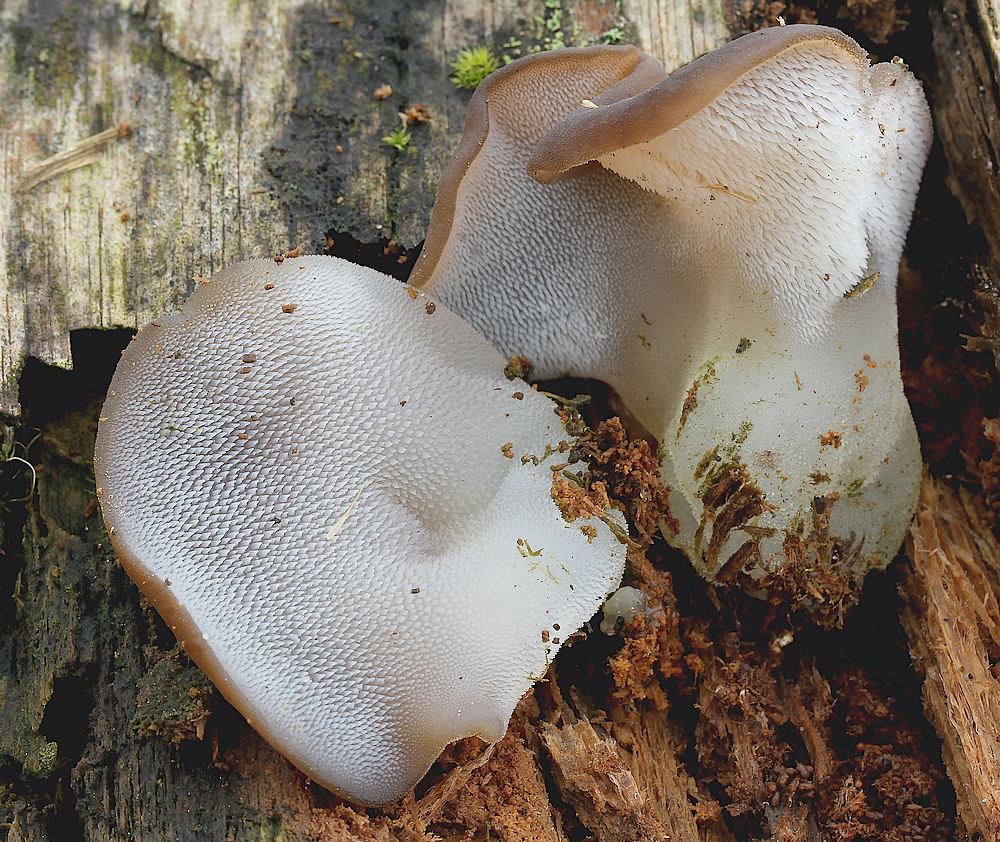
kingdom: Fungi
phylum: Basidiomycota
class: Agaricomycetes
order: Auriculariales
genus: Pseudohydnum
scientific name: Pseudohydnum gelatinosum
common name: bævretand
